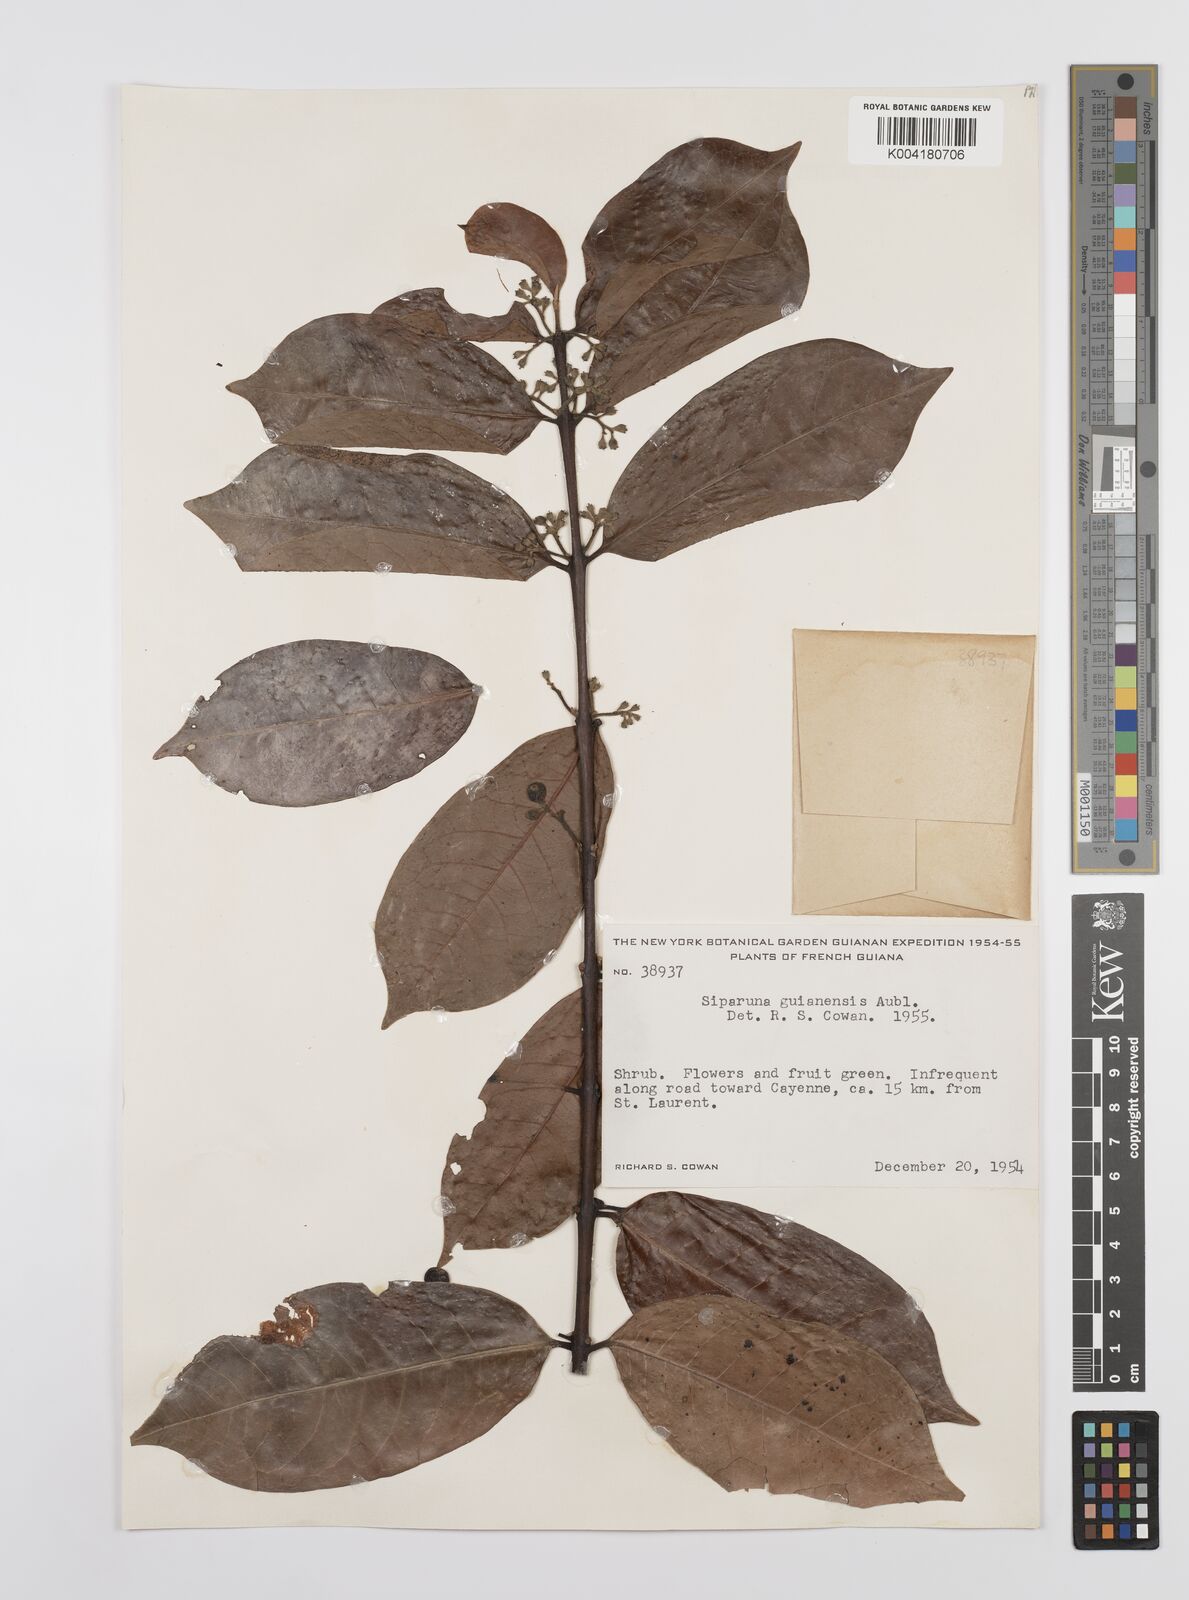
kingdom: Plantae
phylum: Tracheophyta
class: Magnoliopsida
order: Laurales
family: Siparunaceae
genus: Siparuna
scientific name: Siparuna guianensis
